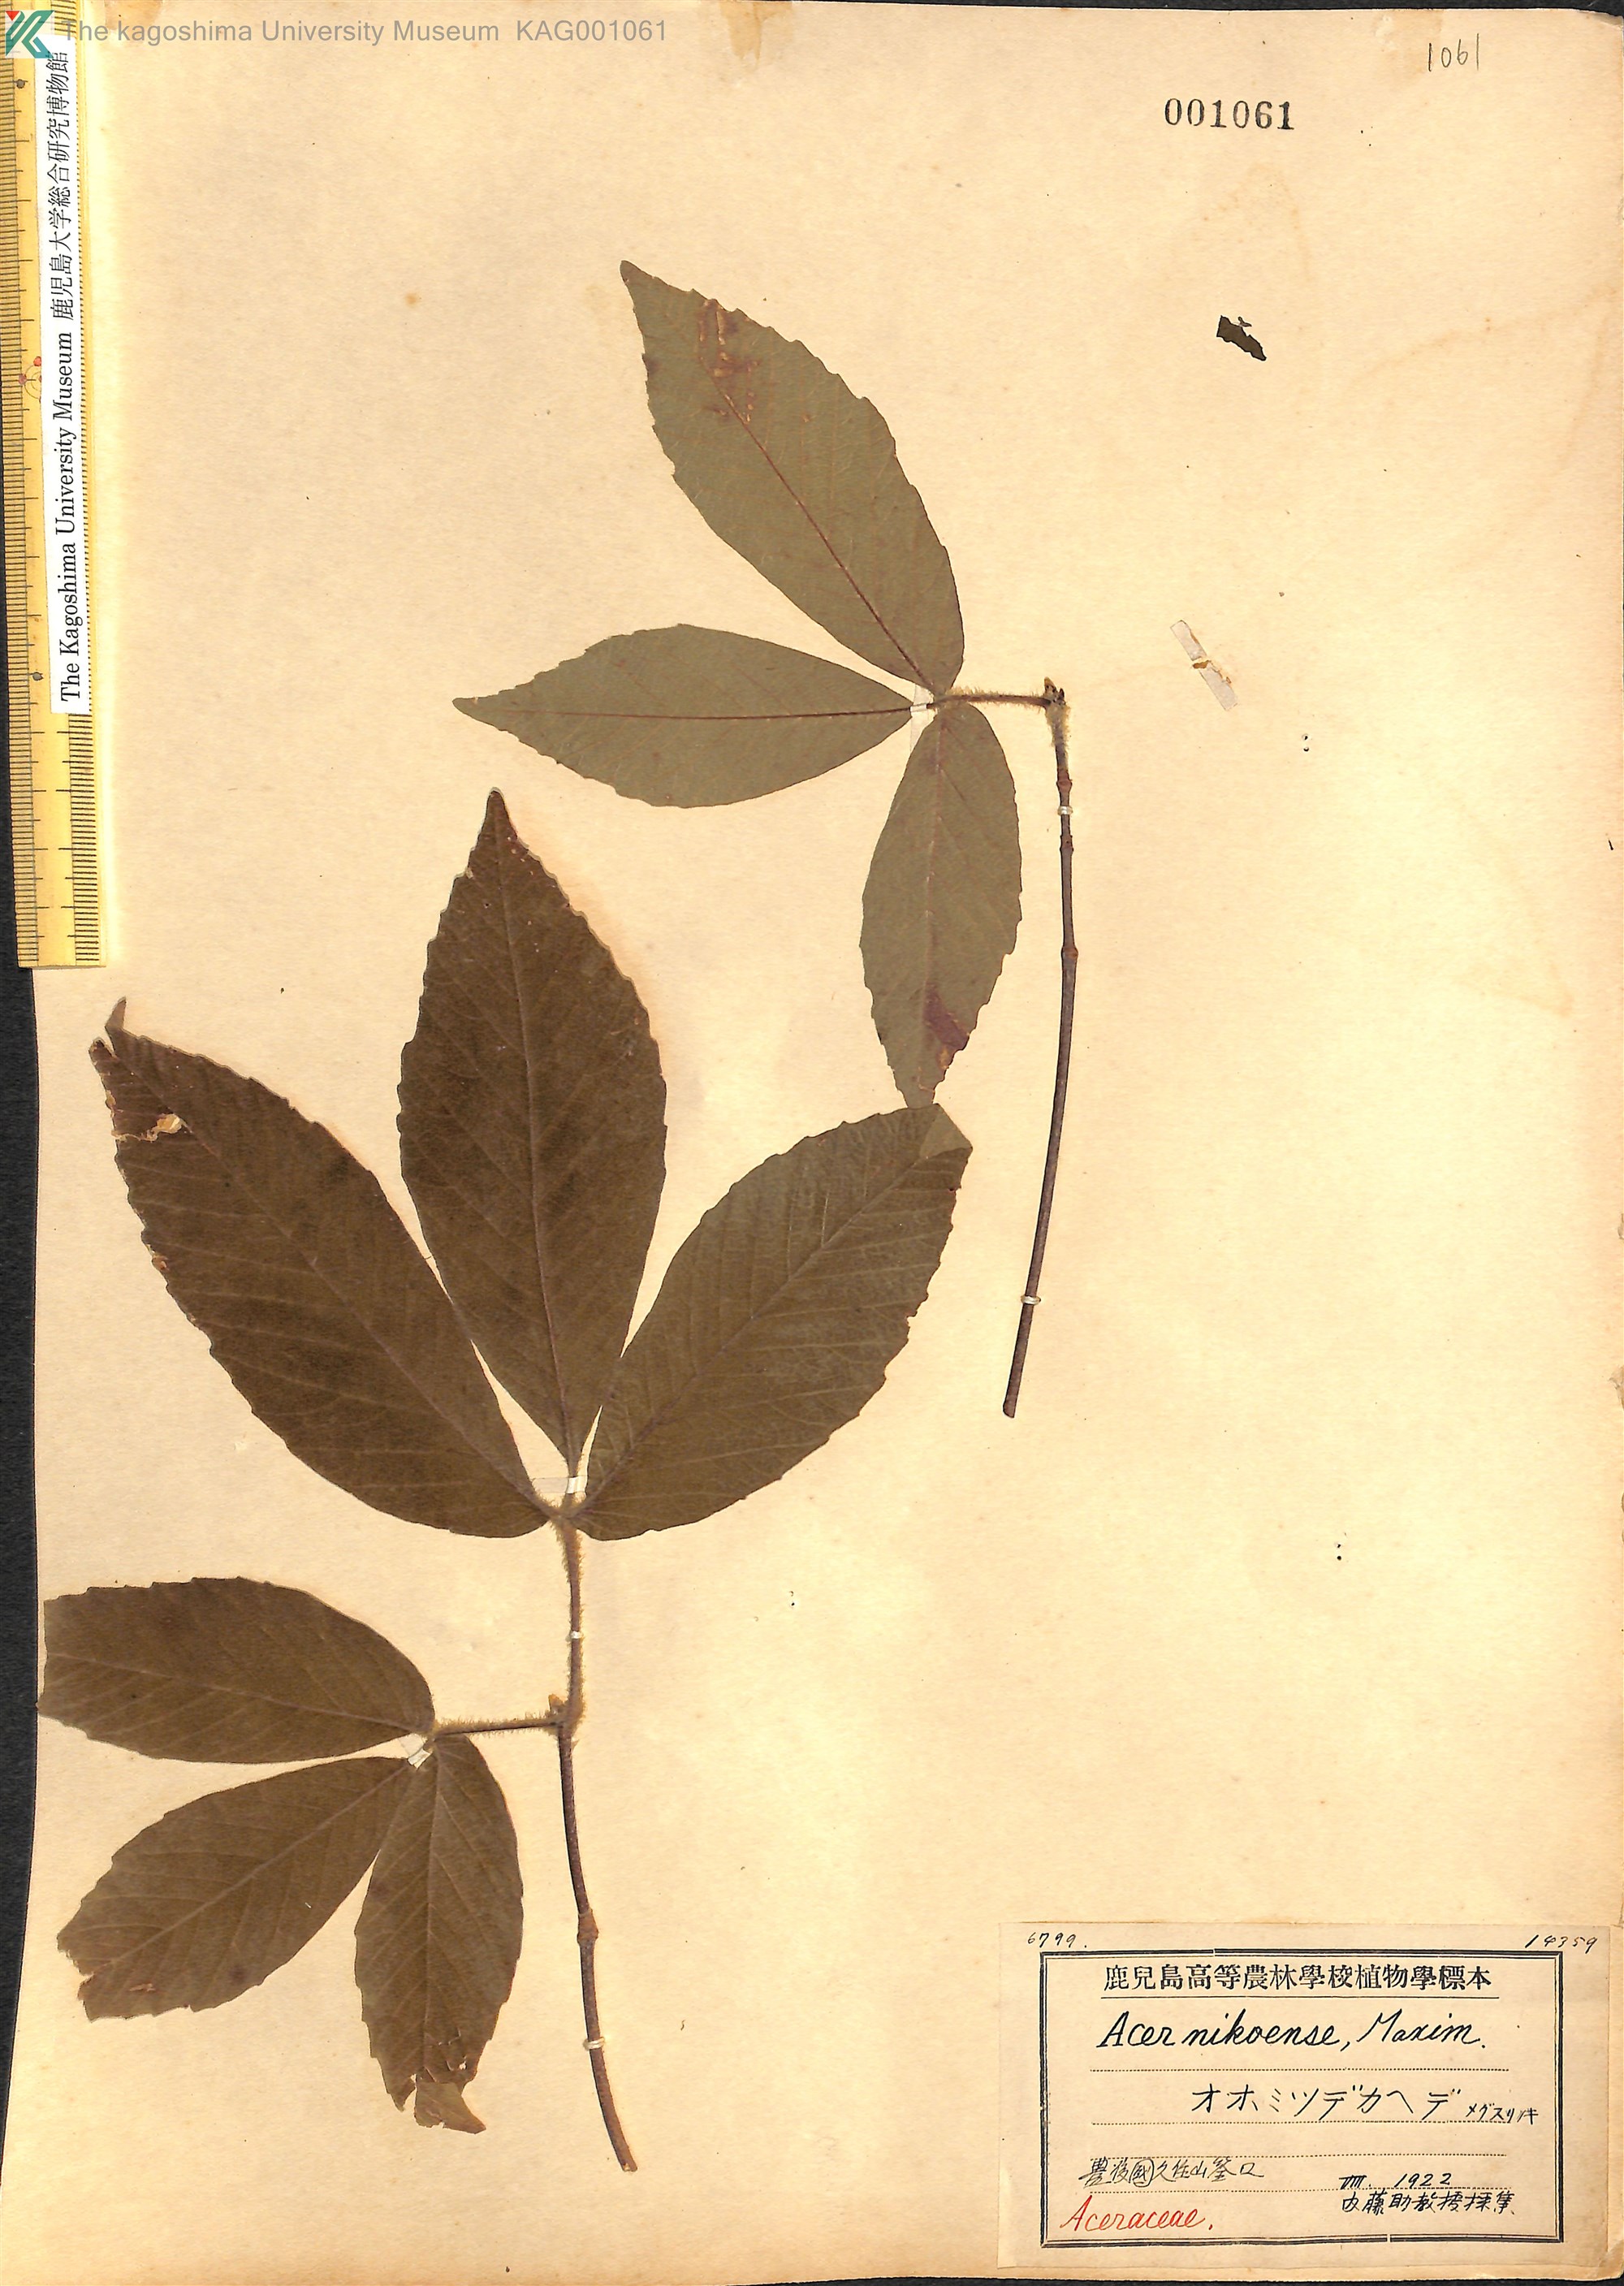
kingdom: Plantae
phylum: Tracheophyta
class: Magnoliopsida
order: Sapindales
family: Sapindaceae
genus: Acer
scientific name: Acer maximowiczianum
